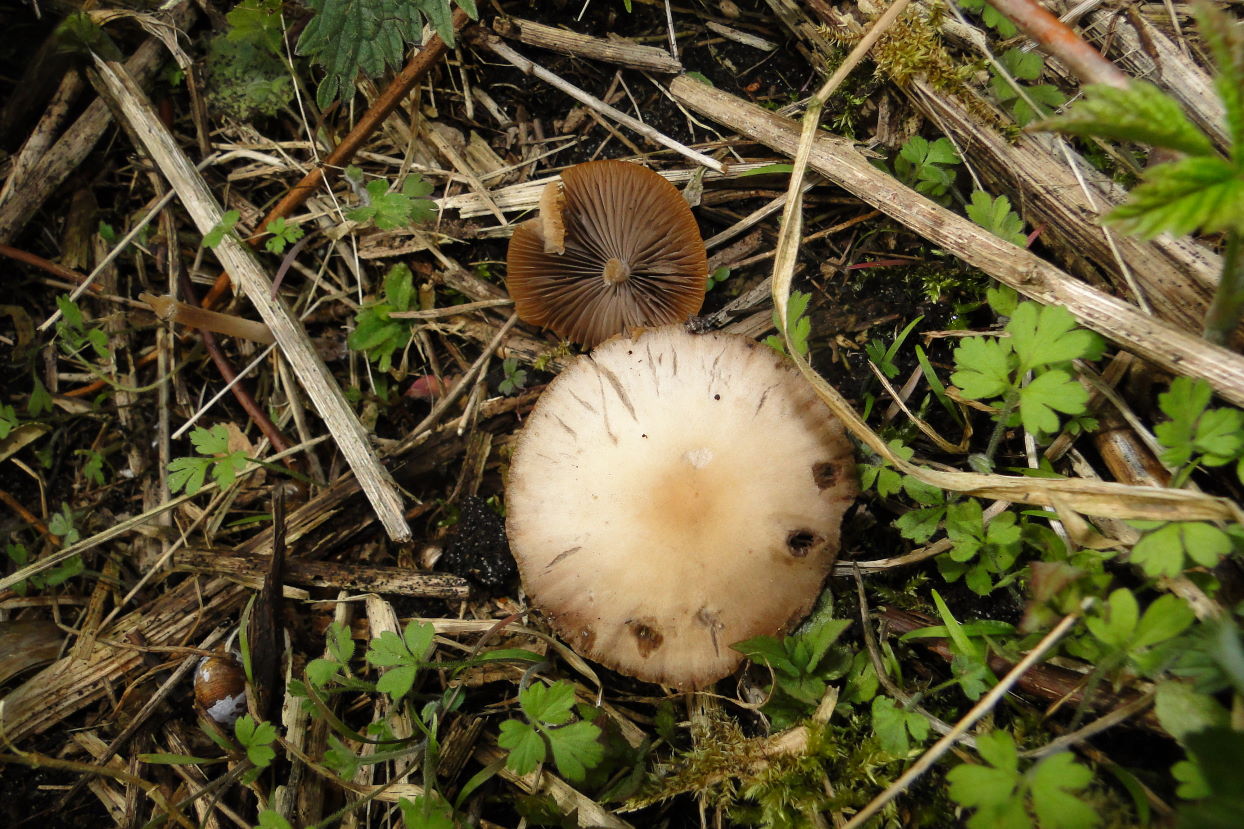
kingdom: Fungi
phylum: Basidiomycota
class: Agaricomycetes
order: Agaricales
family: Psathyrellaceae
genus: Psathyrella
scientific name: Psathyrella spadiceogrisea
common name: gråbrun mørkhat
